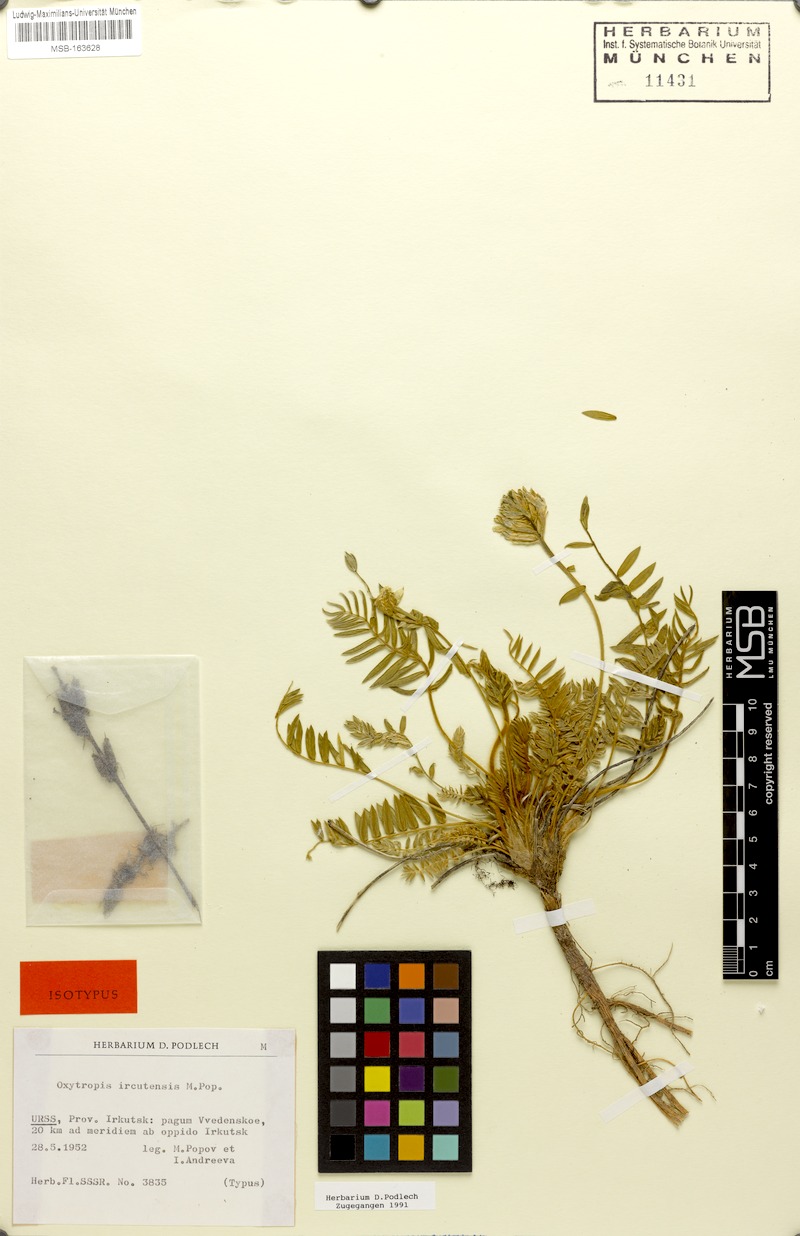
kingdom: Plantae
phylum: Tracheophyta
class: Magnoliopsida
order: Fabales
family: Fabaceae
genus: Oxytropis
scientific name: Oxytropis baicalia
